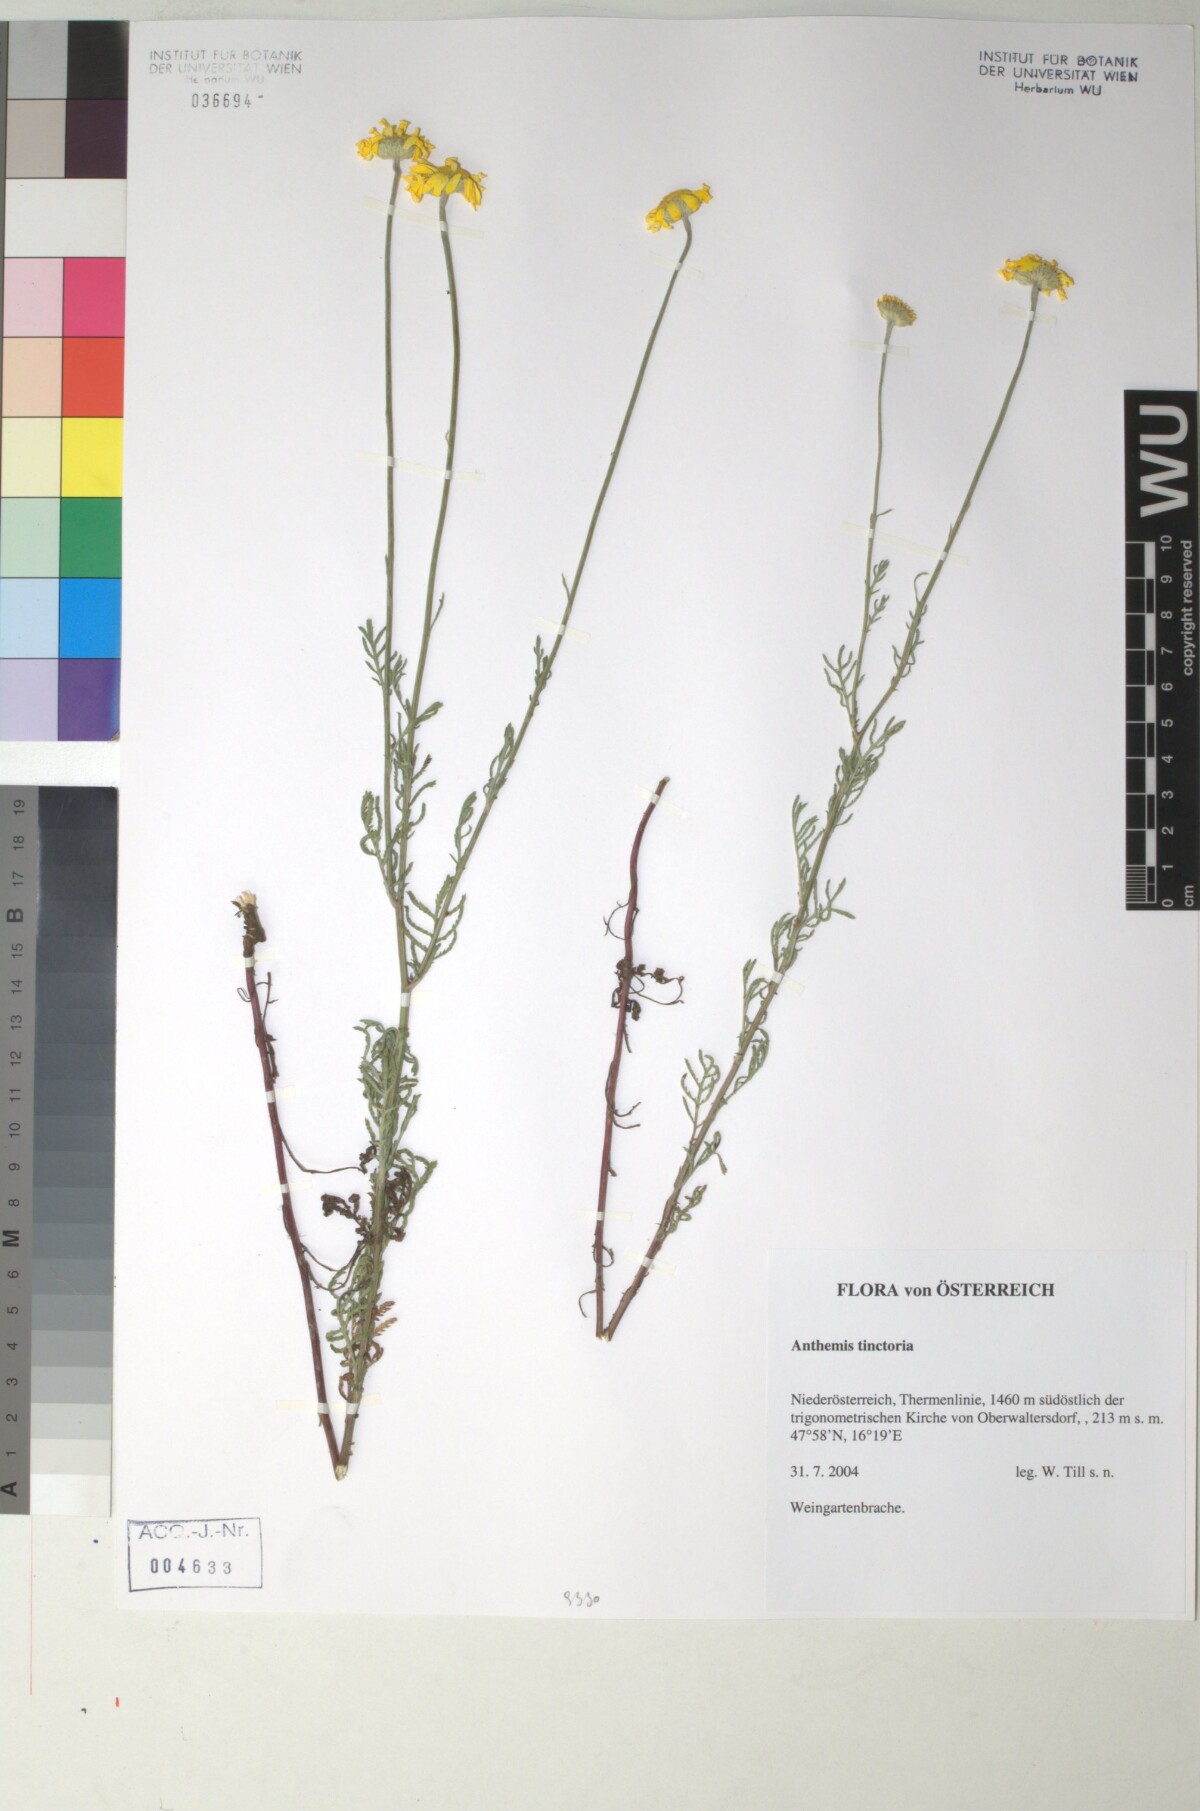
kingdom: Plantae
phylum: Tracheophyta
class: Magnoliopsida
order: Asterales
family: Asteraceae
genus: Cota
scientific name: Cota tinctoria
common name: Golden chamomile
